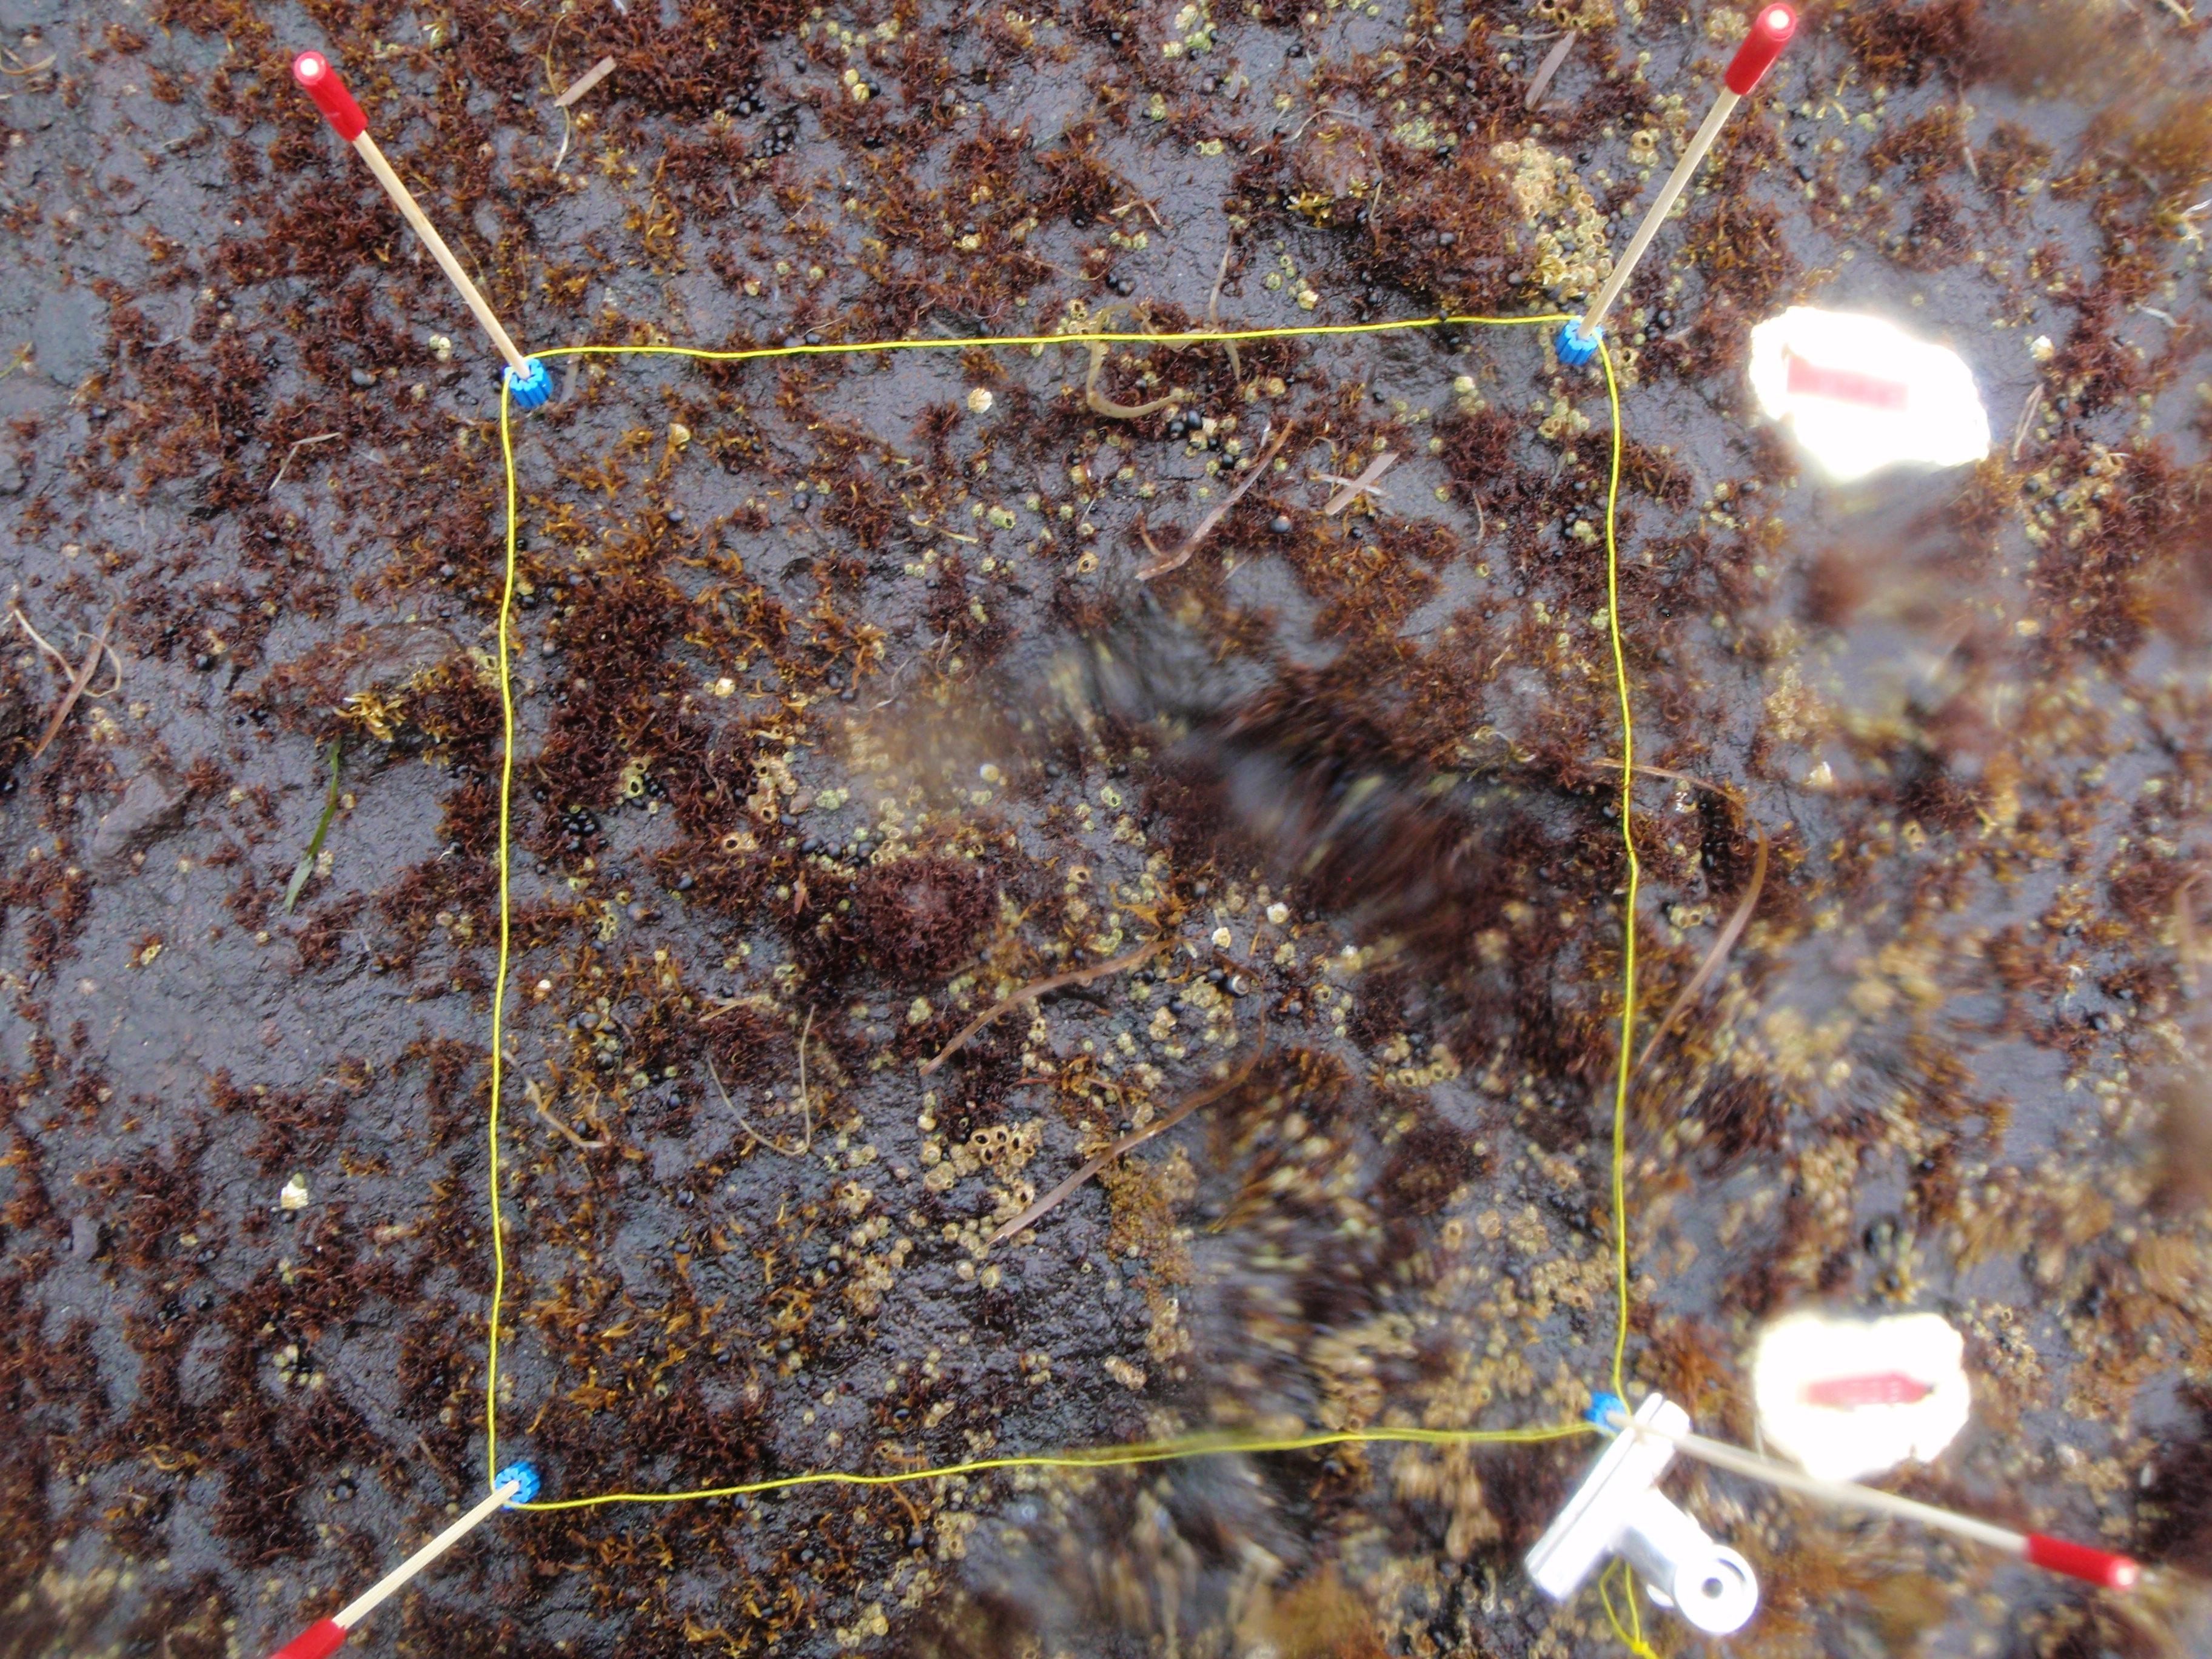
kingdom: Chromista
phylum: Ochrophyta
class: Phaeophyceae
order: Scytosiphonales
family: Scytosiphonaceae
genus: Analipus
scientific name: Analipus japonicus
